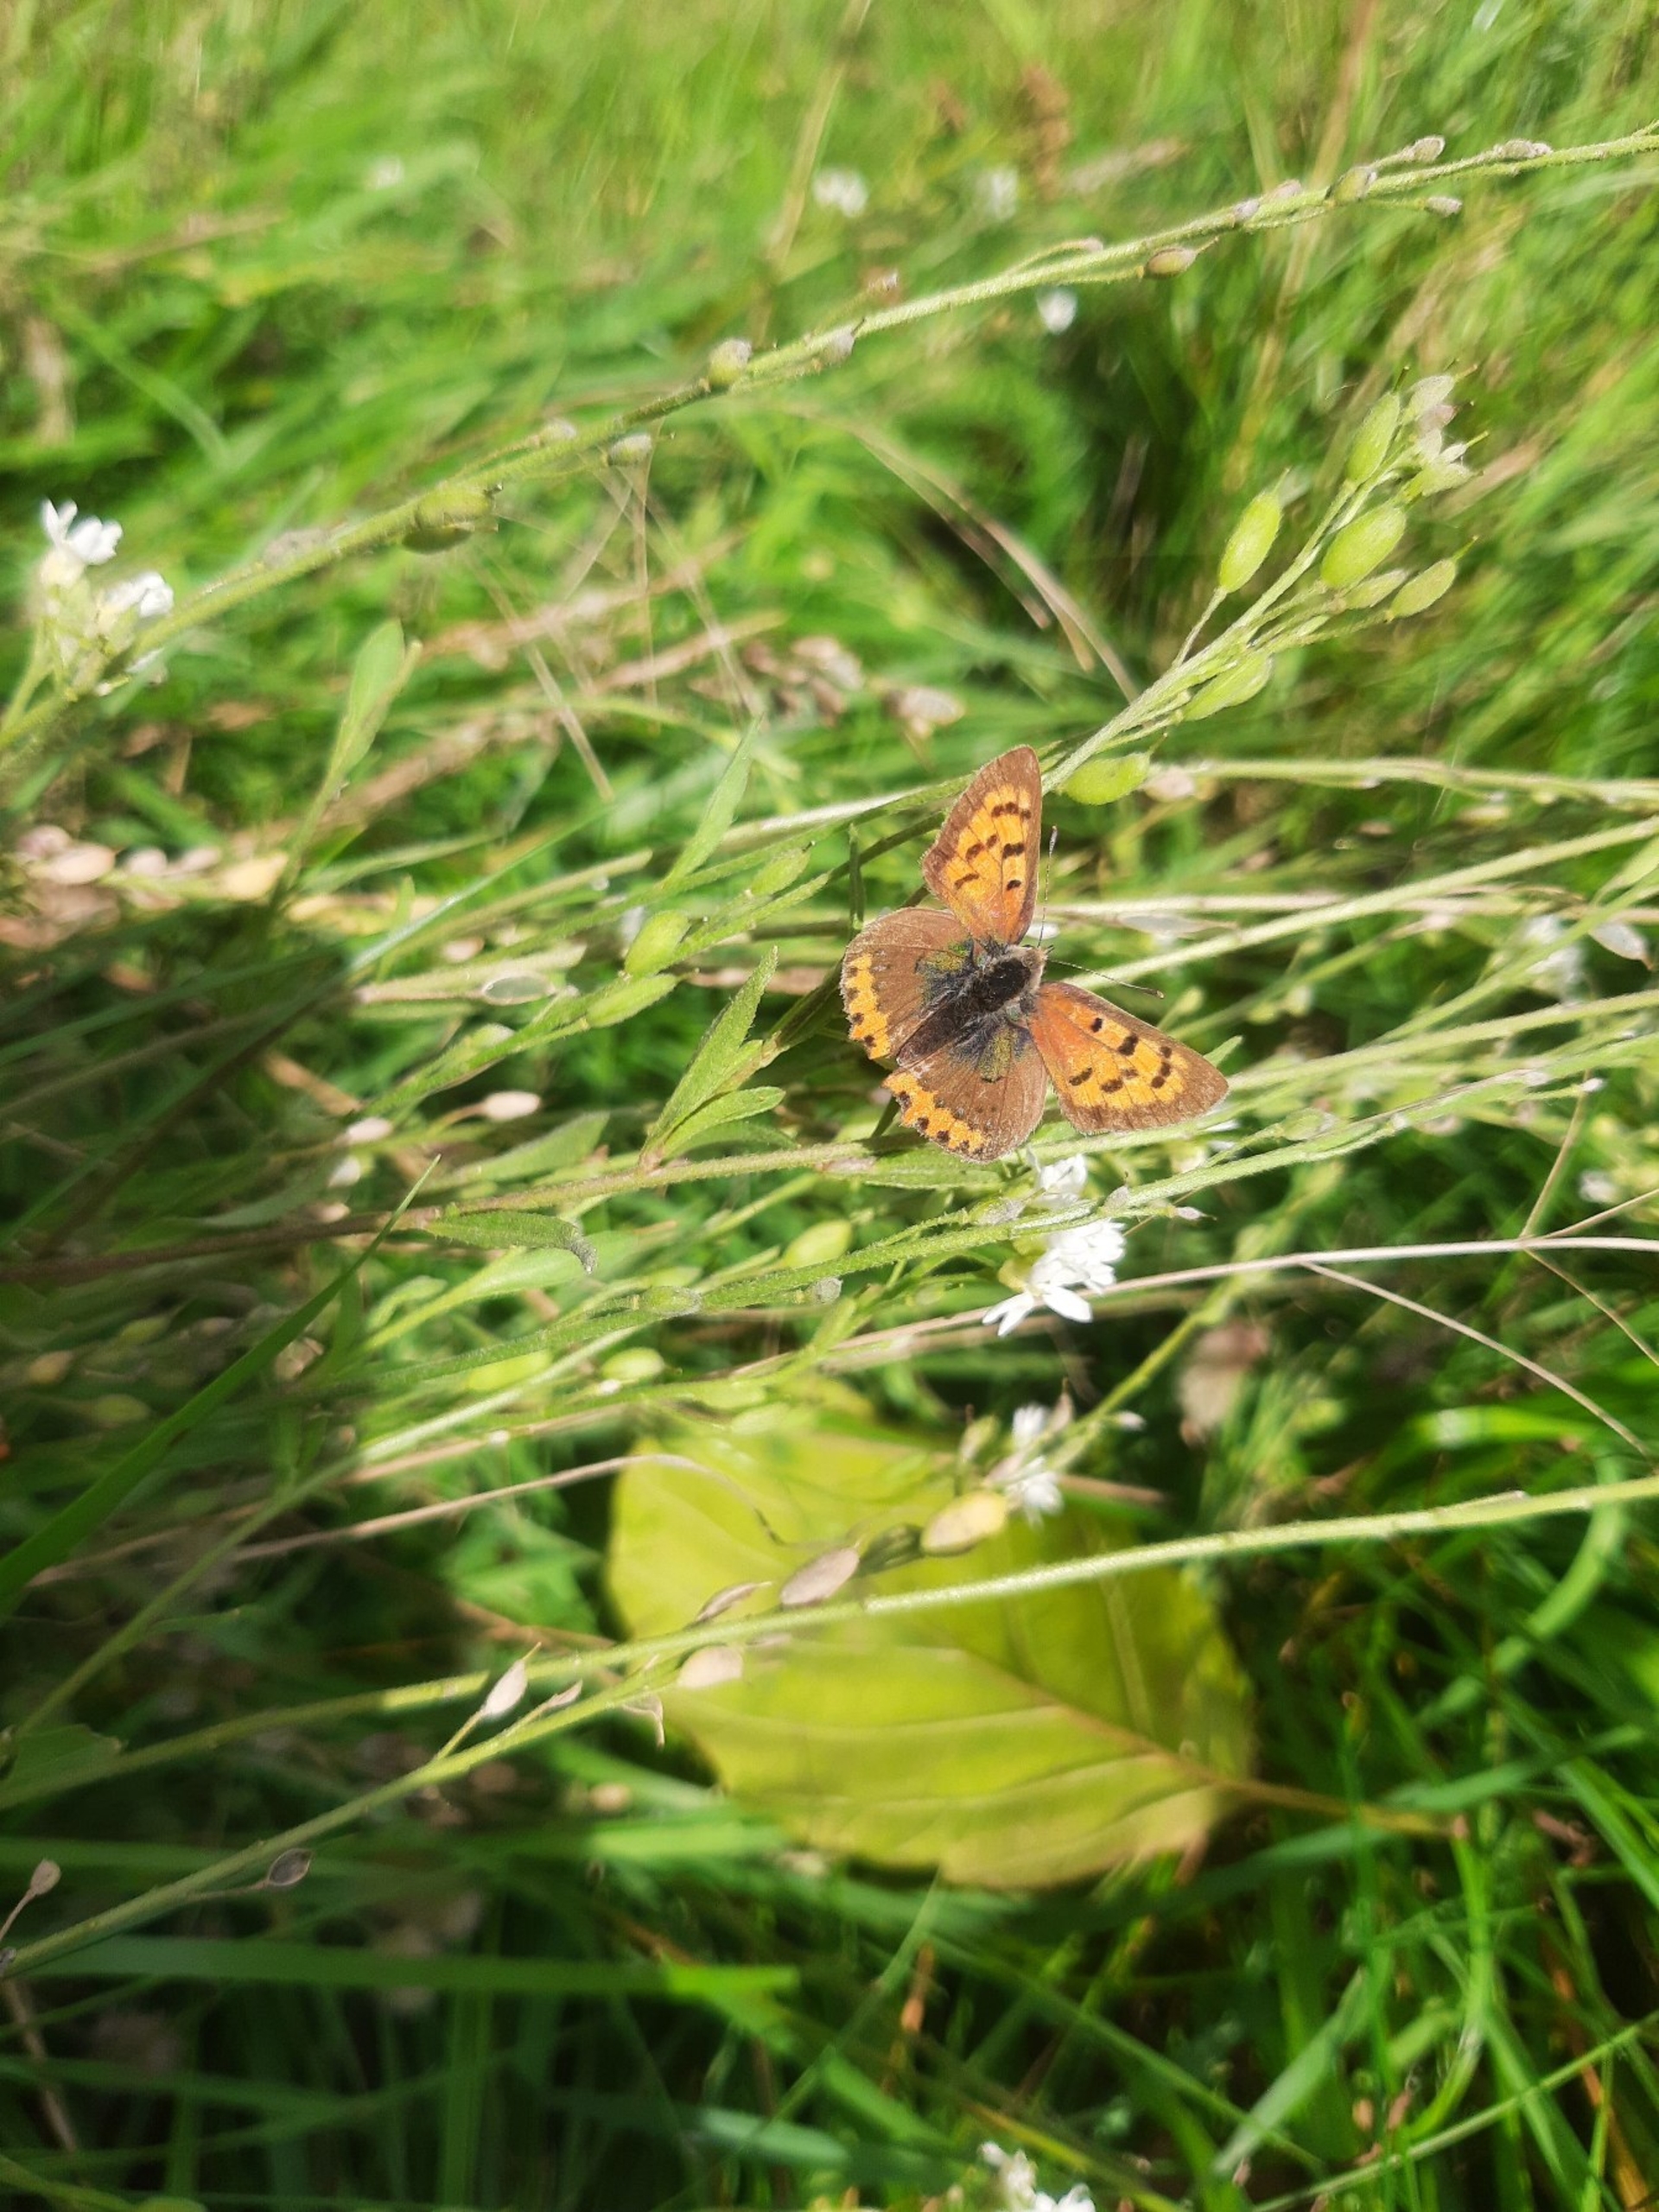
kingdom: Animalia
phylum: Arthropoda
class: Insecta
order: Lepidoptera
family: Lycaenidae
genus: Lycaena
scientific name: Lycaena phlaeas
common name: Lille ildfugl
